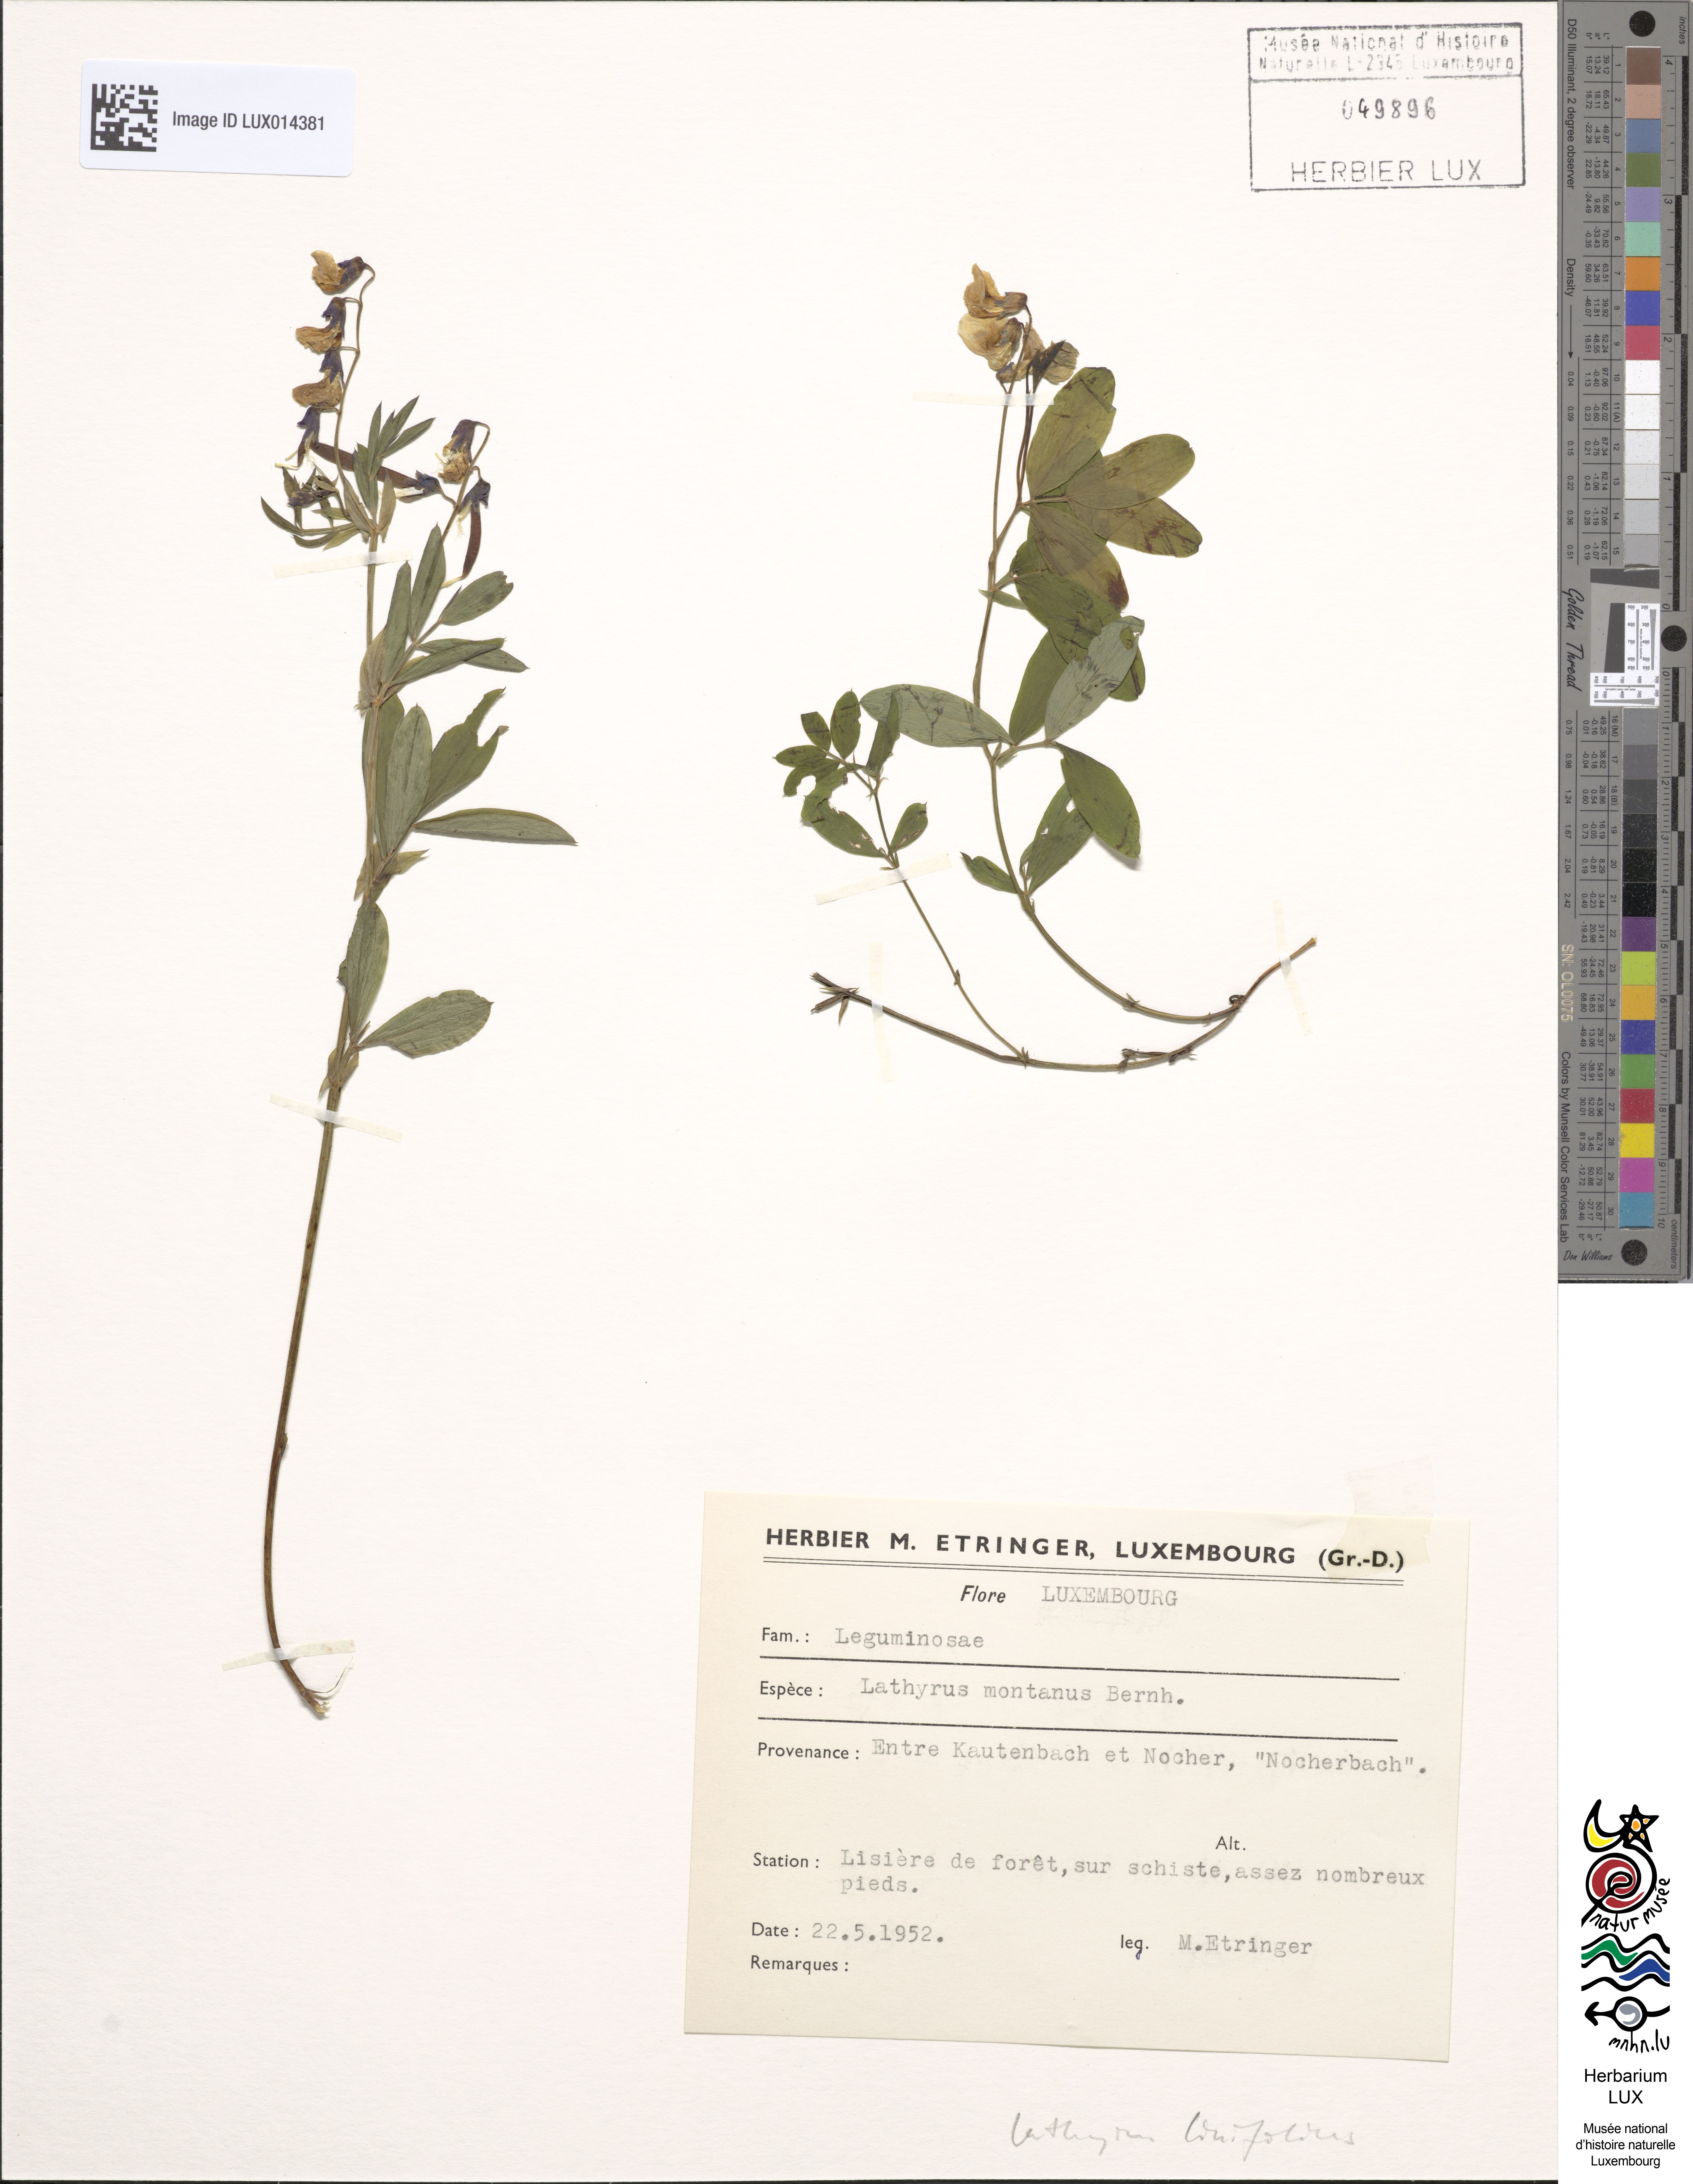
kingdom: Plantae
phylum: Tracheophyta
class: Magnoliopsida
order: Fabales
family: Fabaceae
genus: Lathyrus
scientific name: Lathyrus linifolius
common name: Bitter-vetch
